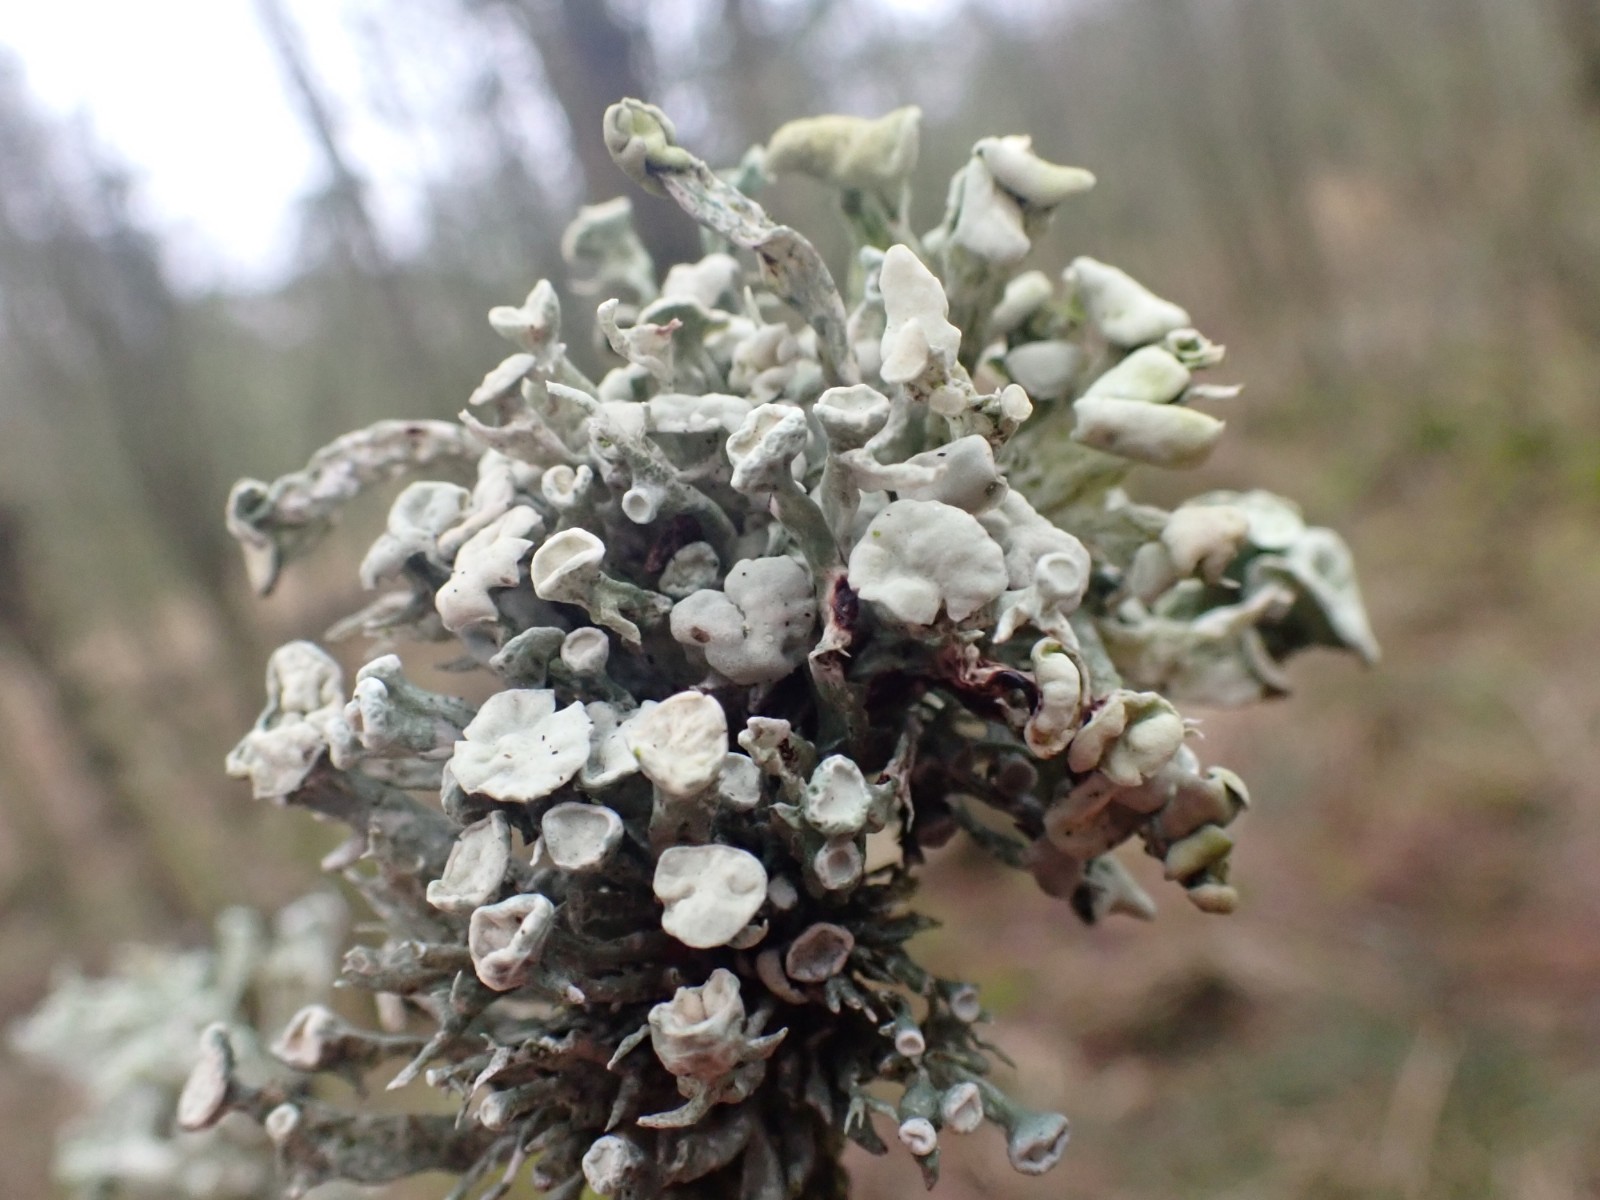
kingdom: Fungi
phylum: Ascomycota
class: Lecanoromycetes
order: Lecanorales
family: Ramalinaceae
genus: Ramalina
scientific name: Ramalina fastigiata
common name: tue-grenlav
